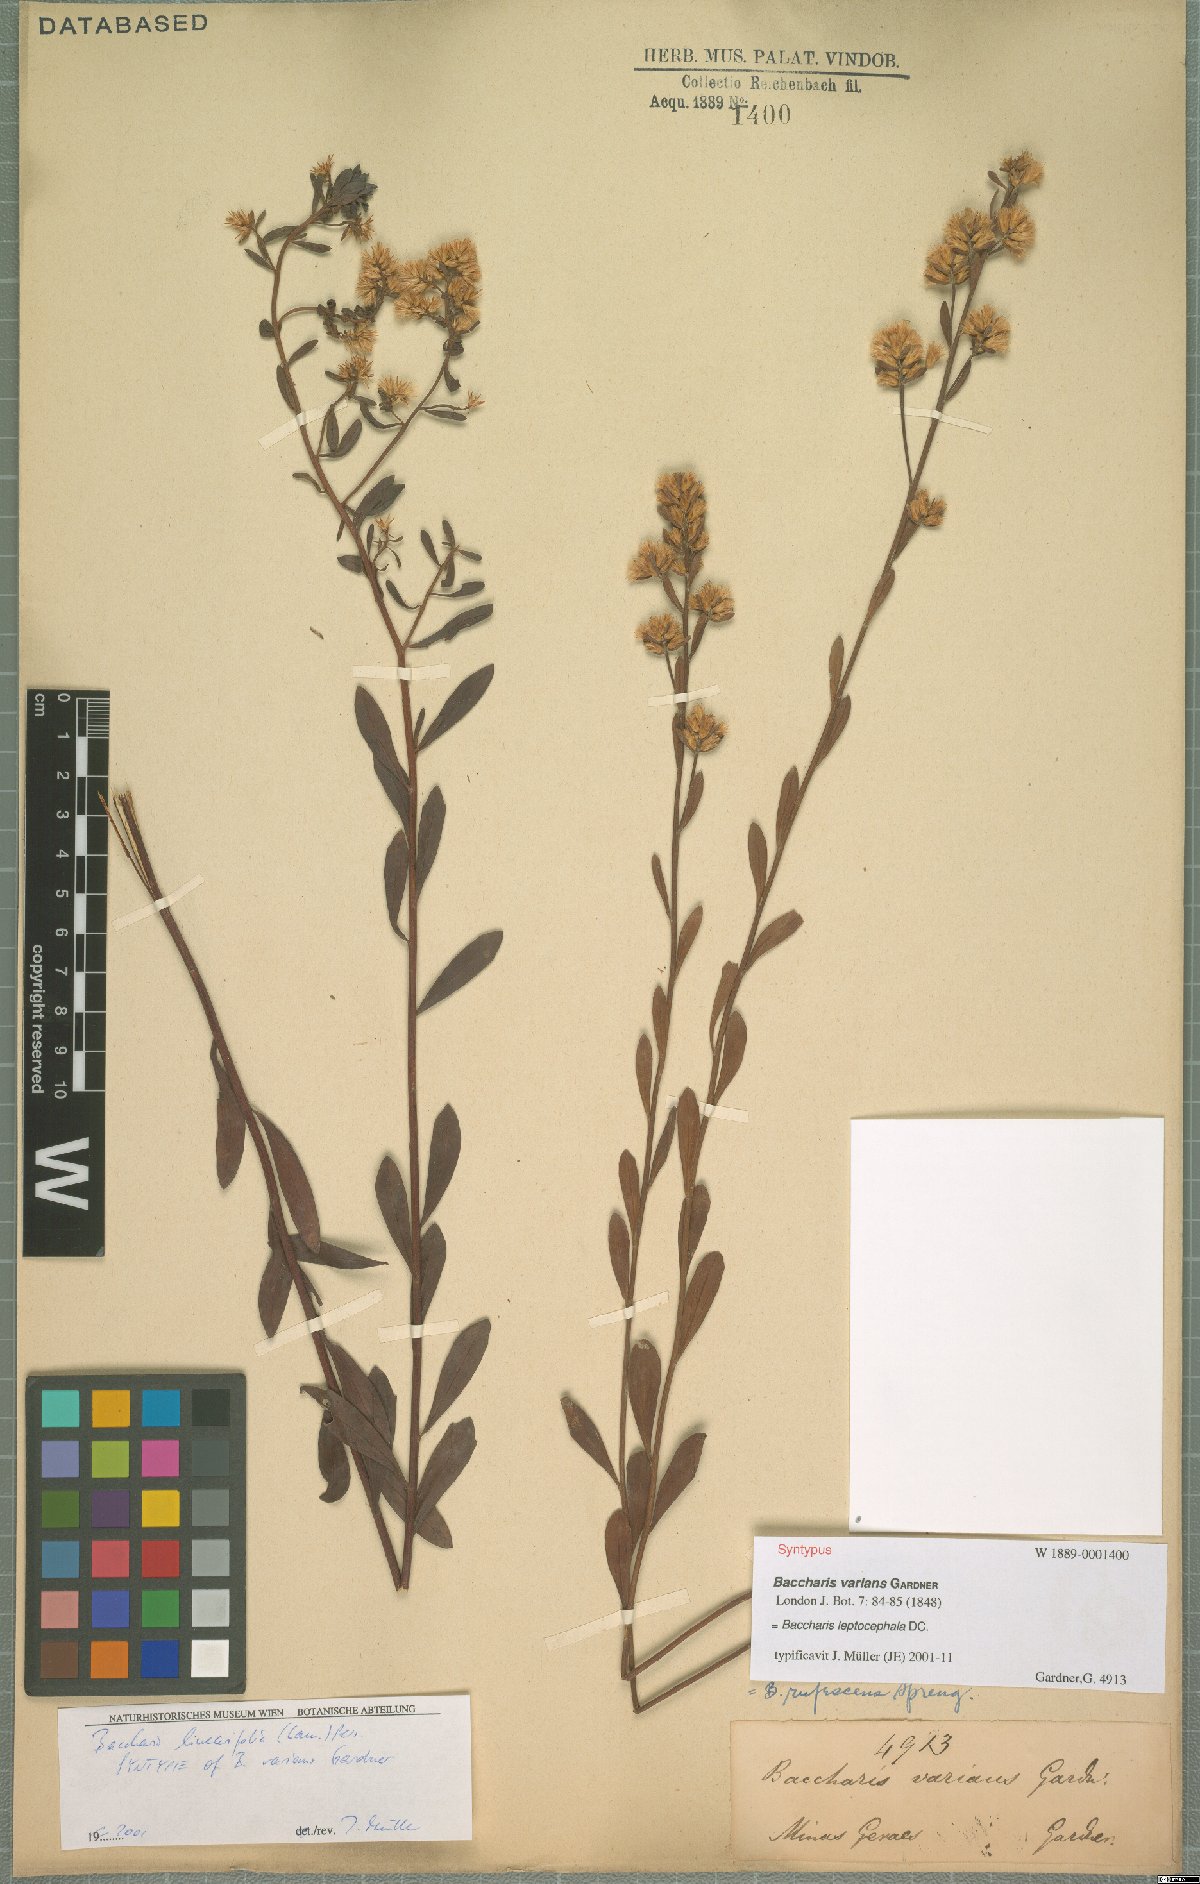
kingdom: Plantae
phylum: Tracheophyta
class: Magnoliopsida
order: Asterales
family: Asteraceae
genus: Baccharis
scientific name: Baccharis leptocephala
